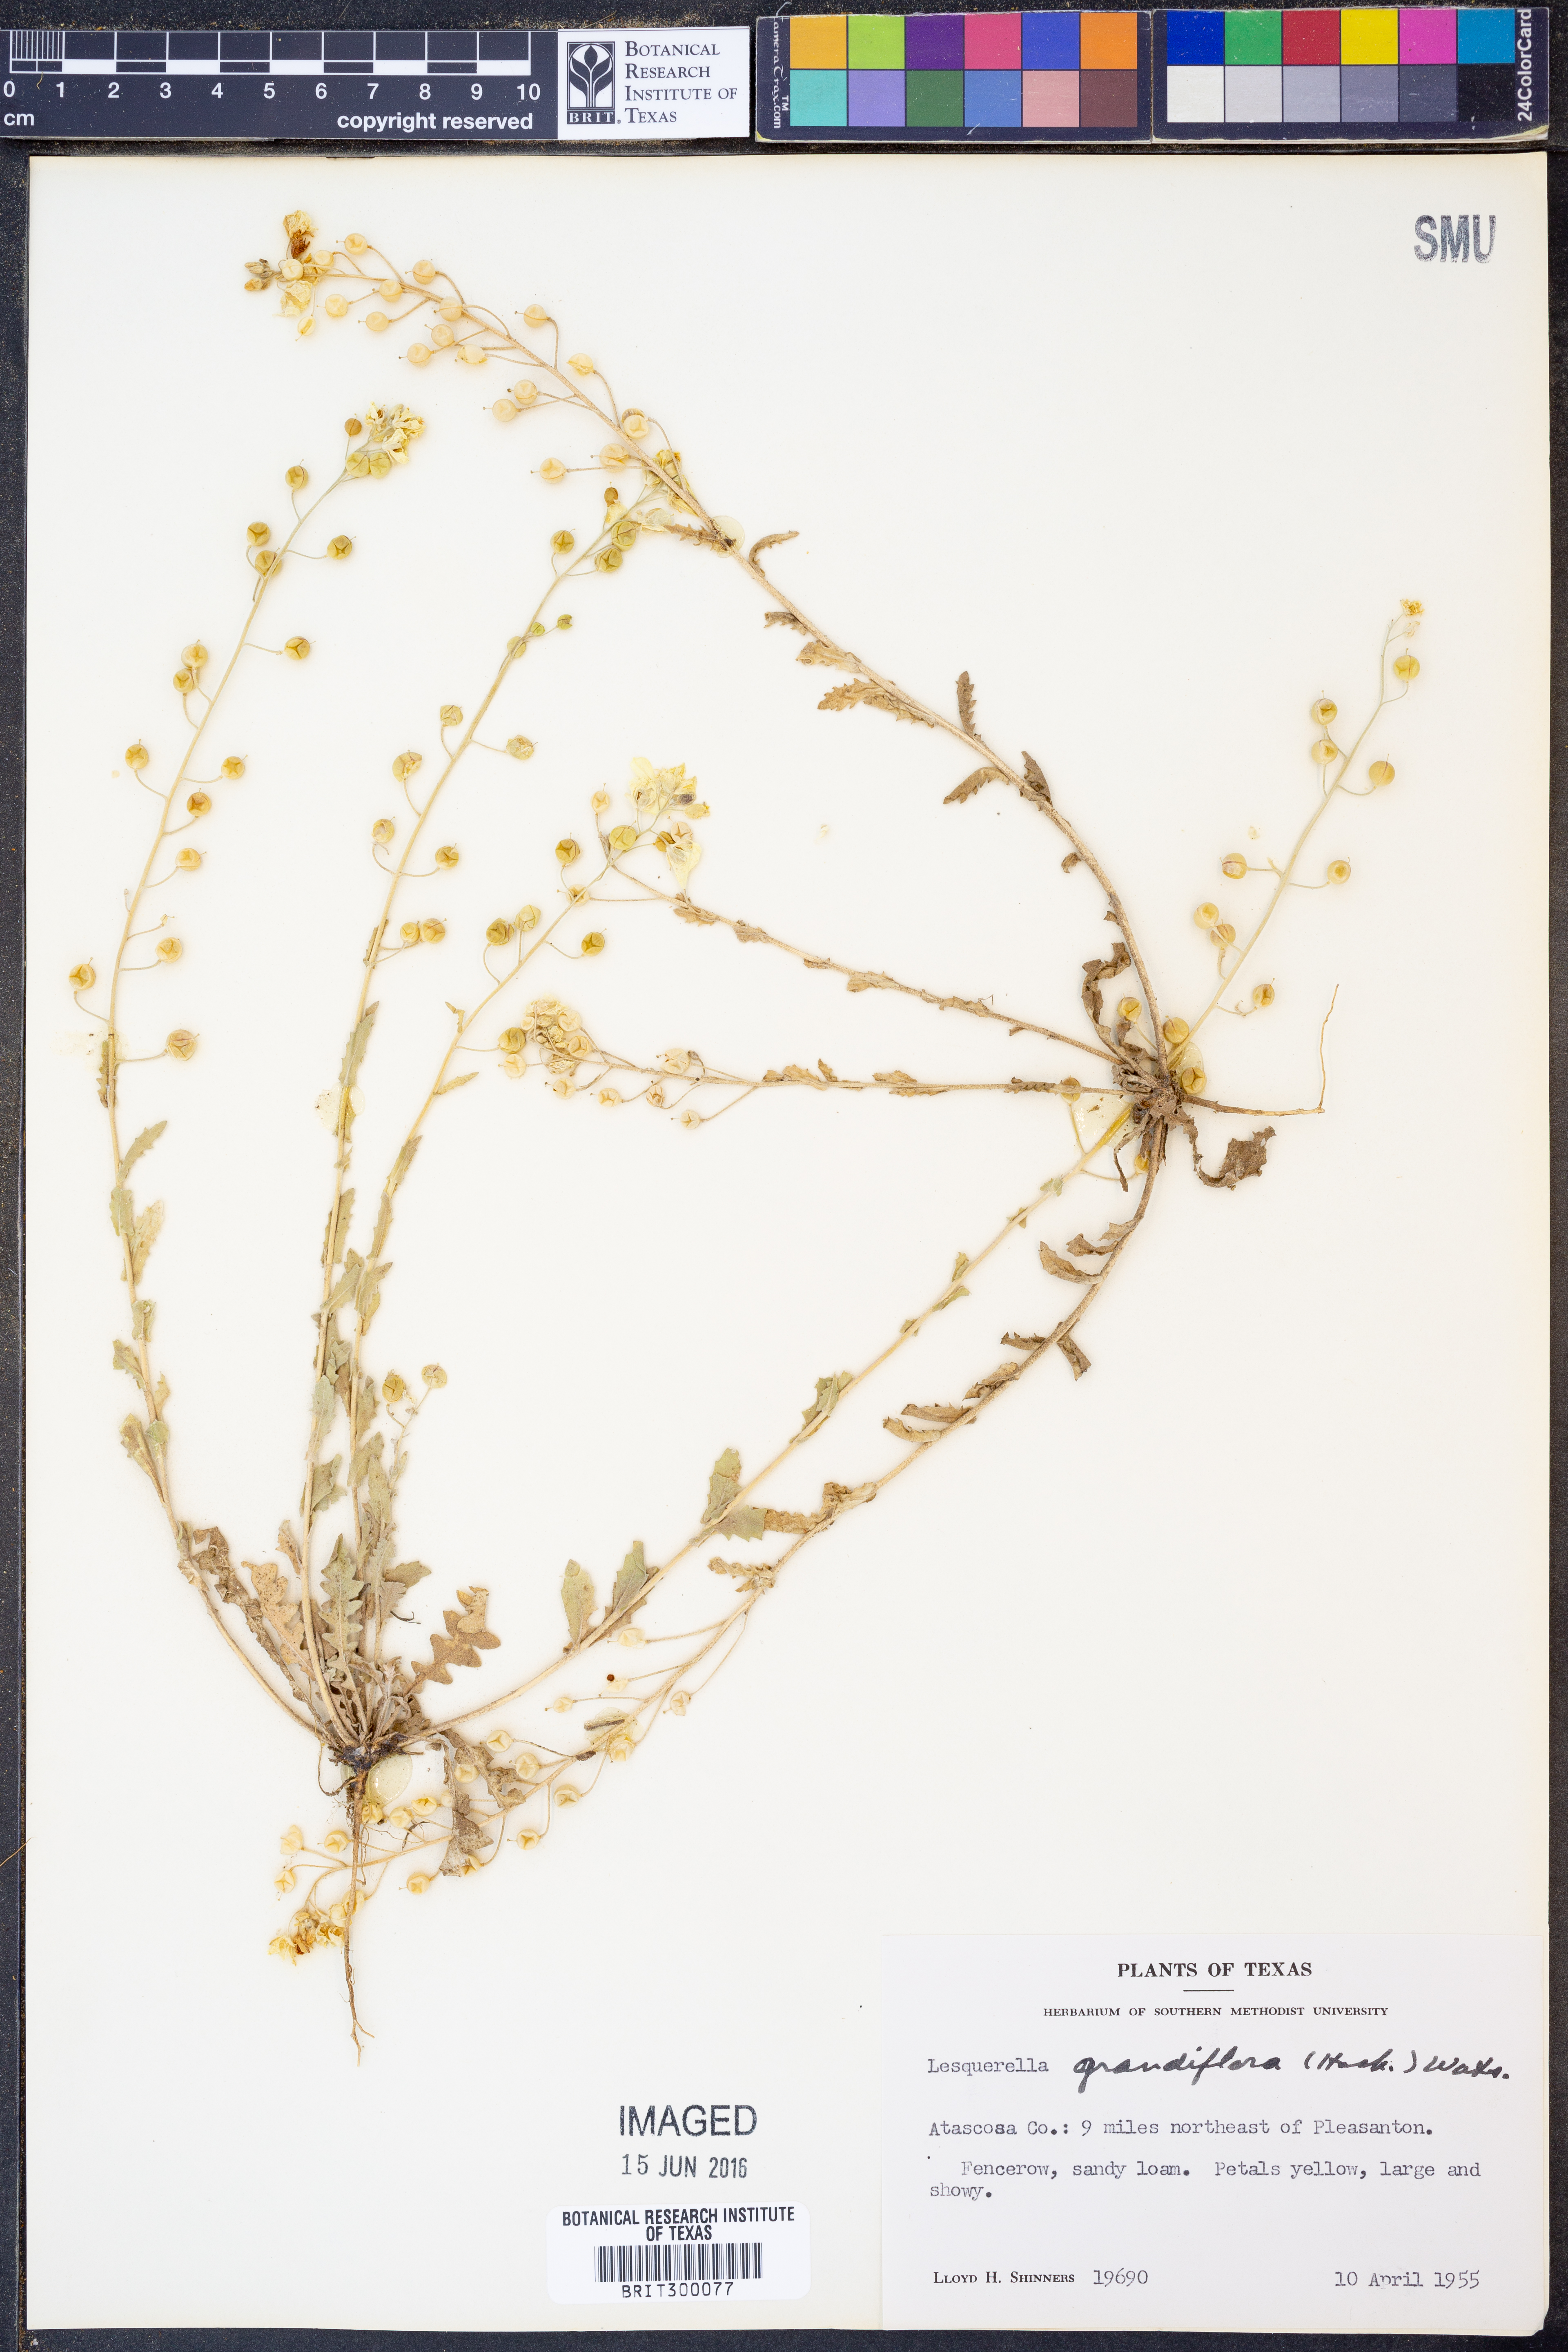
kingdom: Plantae
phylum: Tracheophyta
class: Magnoliopsida
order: Brassicales
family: Brassicaceae
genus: Paysonia
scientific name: Paysonia grandiflora
